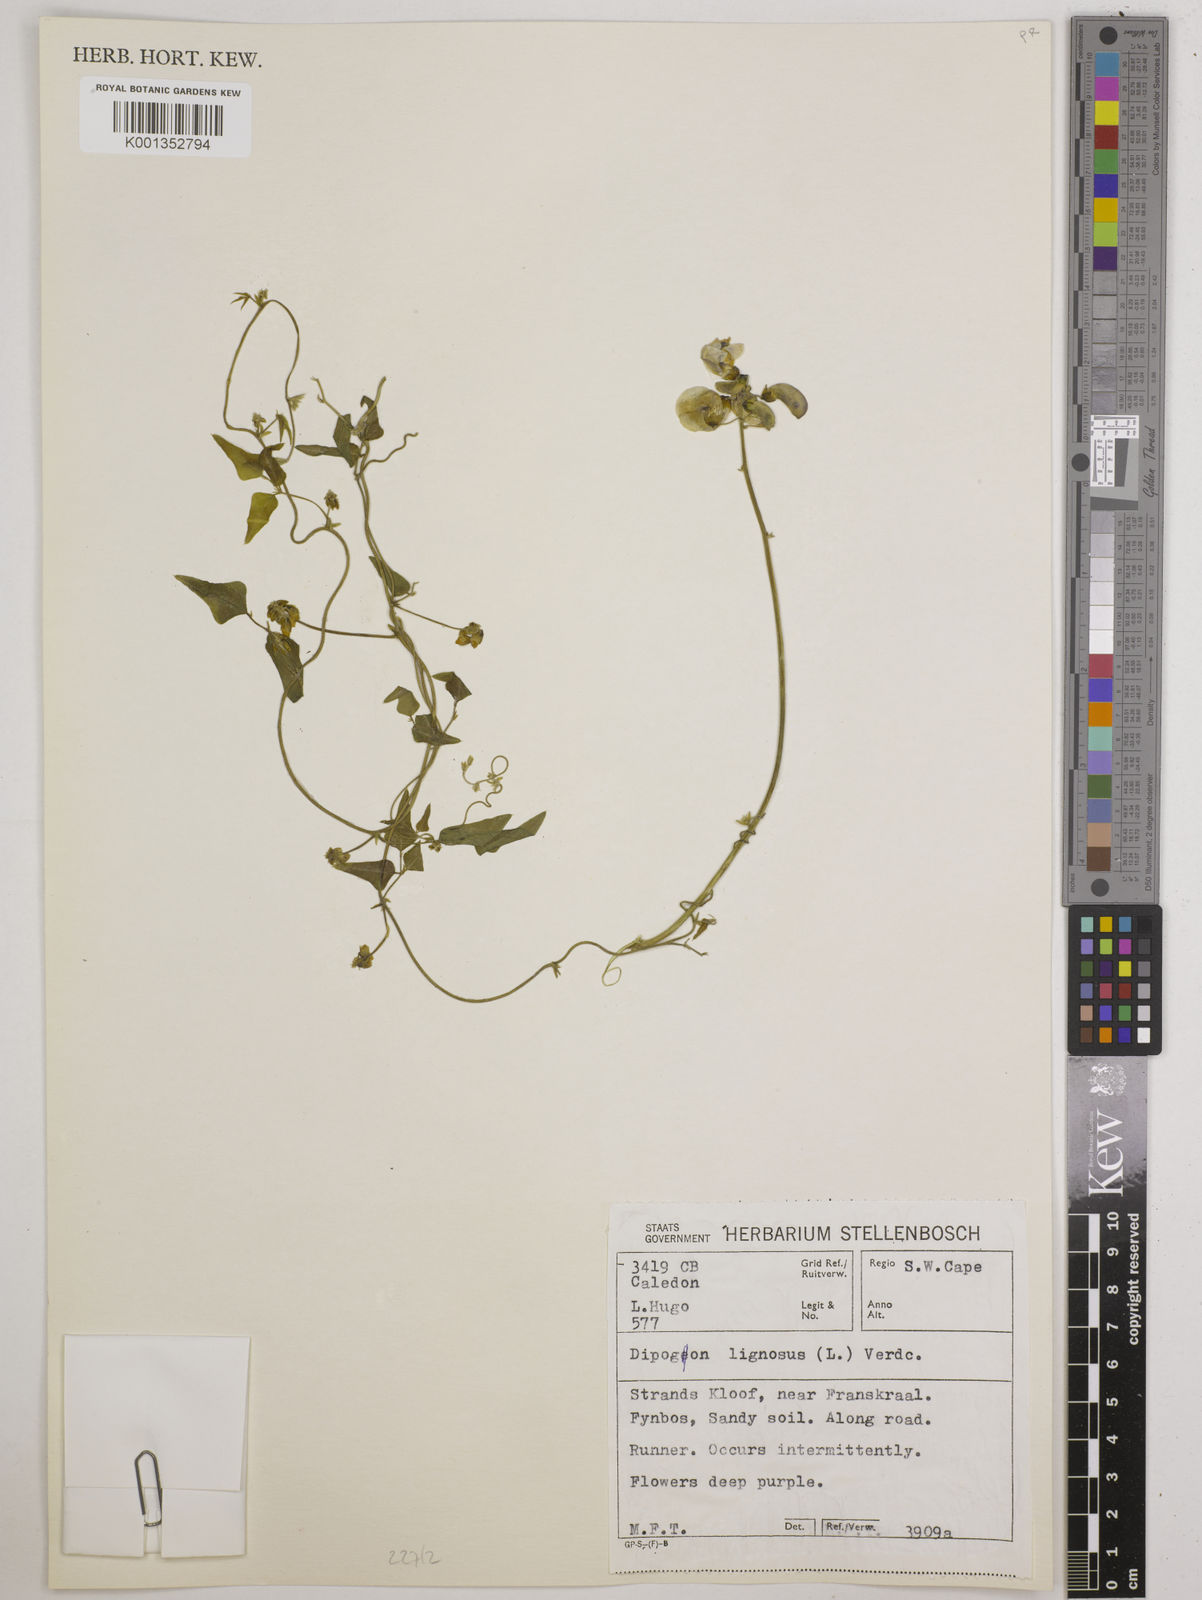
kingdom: Plantae
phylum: Tracheophyta
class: Magnoliopsida
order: Fabales
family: Fabaceae
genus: Dipogon
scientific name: Dipogon lignosus
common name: Okie bean
